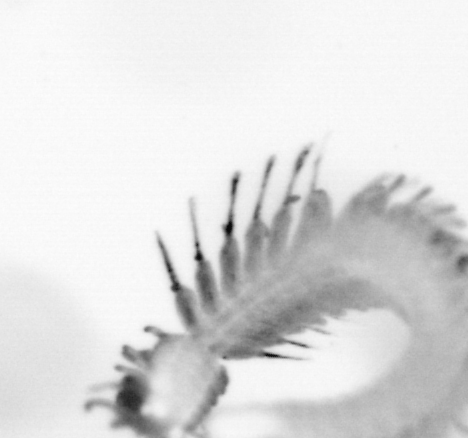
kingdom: Animalia
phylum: Annelida
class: Polychaeta
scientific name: Polychaeta
